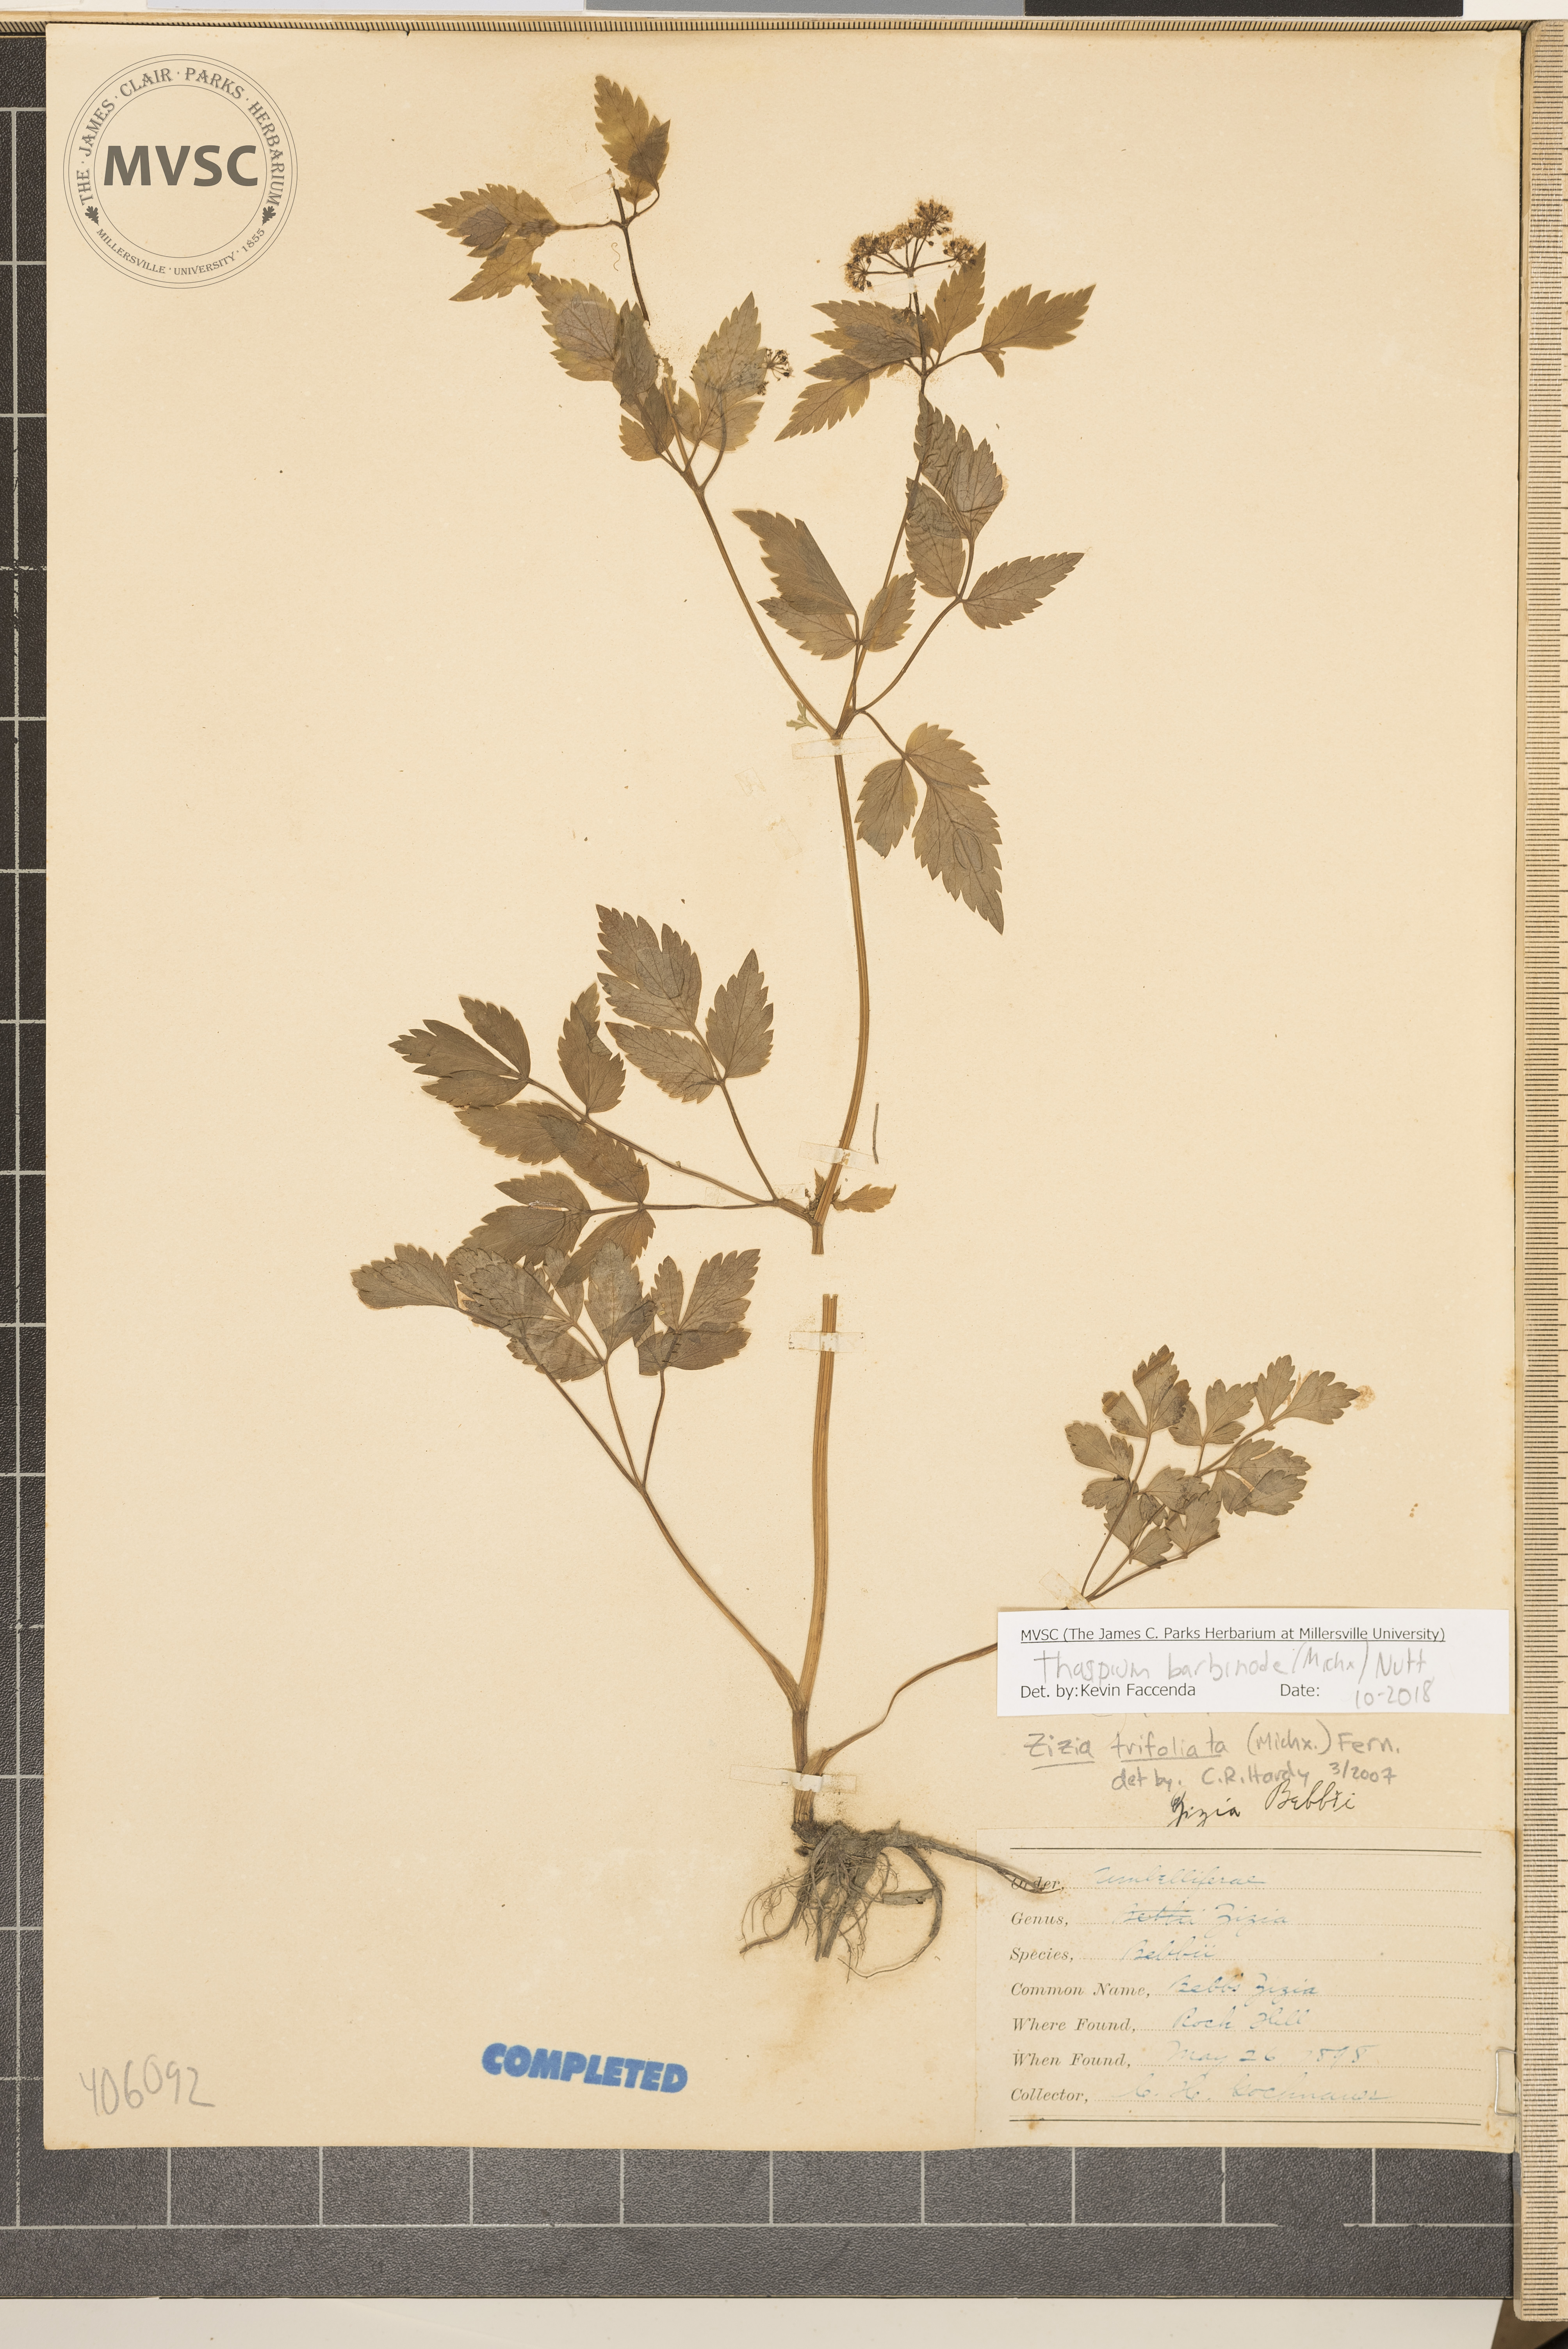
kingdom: Plantae
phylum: Tracheophyta
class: Magnoliopsida
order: Apiales
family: Apiaceae
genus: Thaspium
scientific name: Thaspium barbinode
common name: Bearded meadow-parsnip
